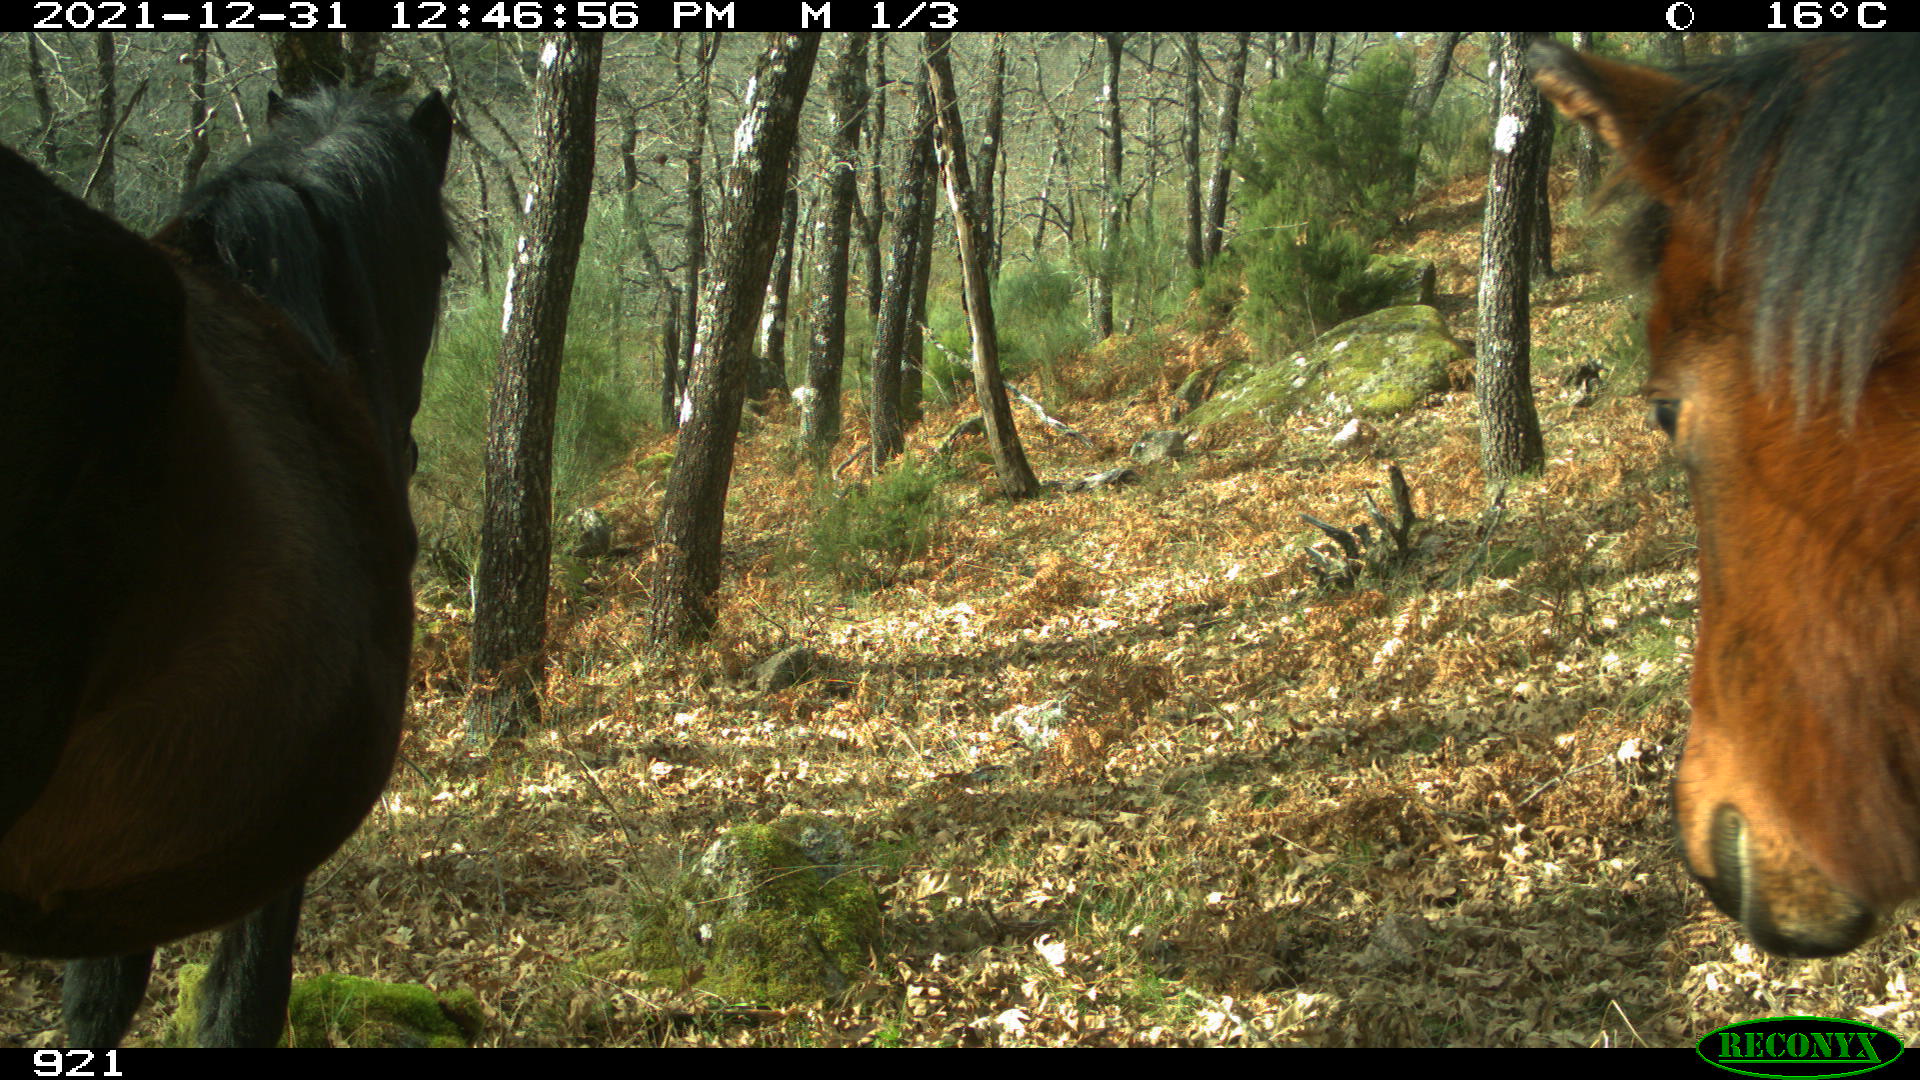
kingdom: Animalia
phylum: Chordata
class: Mammalia
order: Perissodactyla
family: Equidae
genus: Equus
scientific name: Equus caballus
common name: Horse
